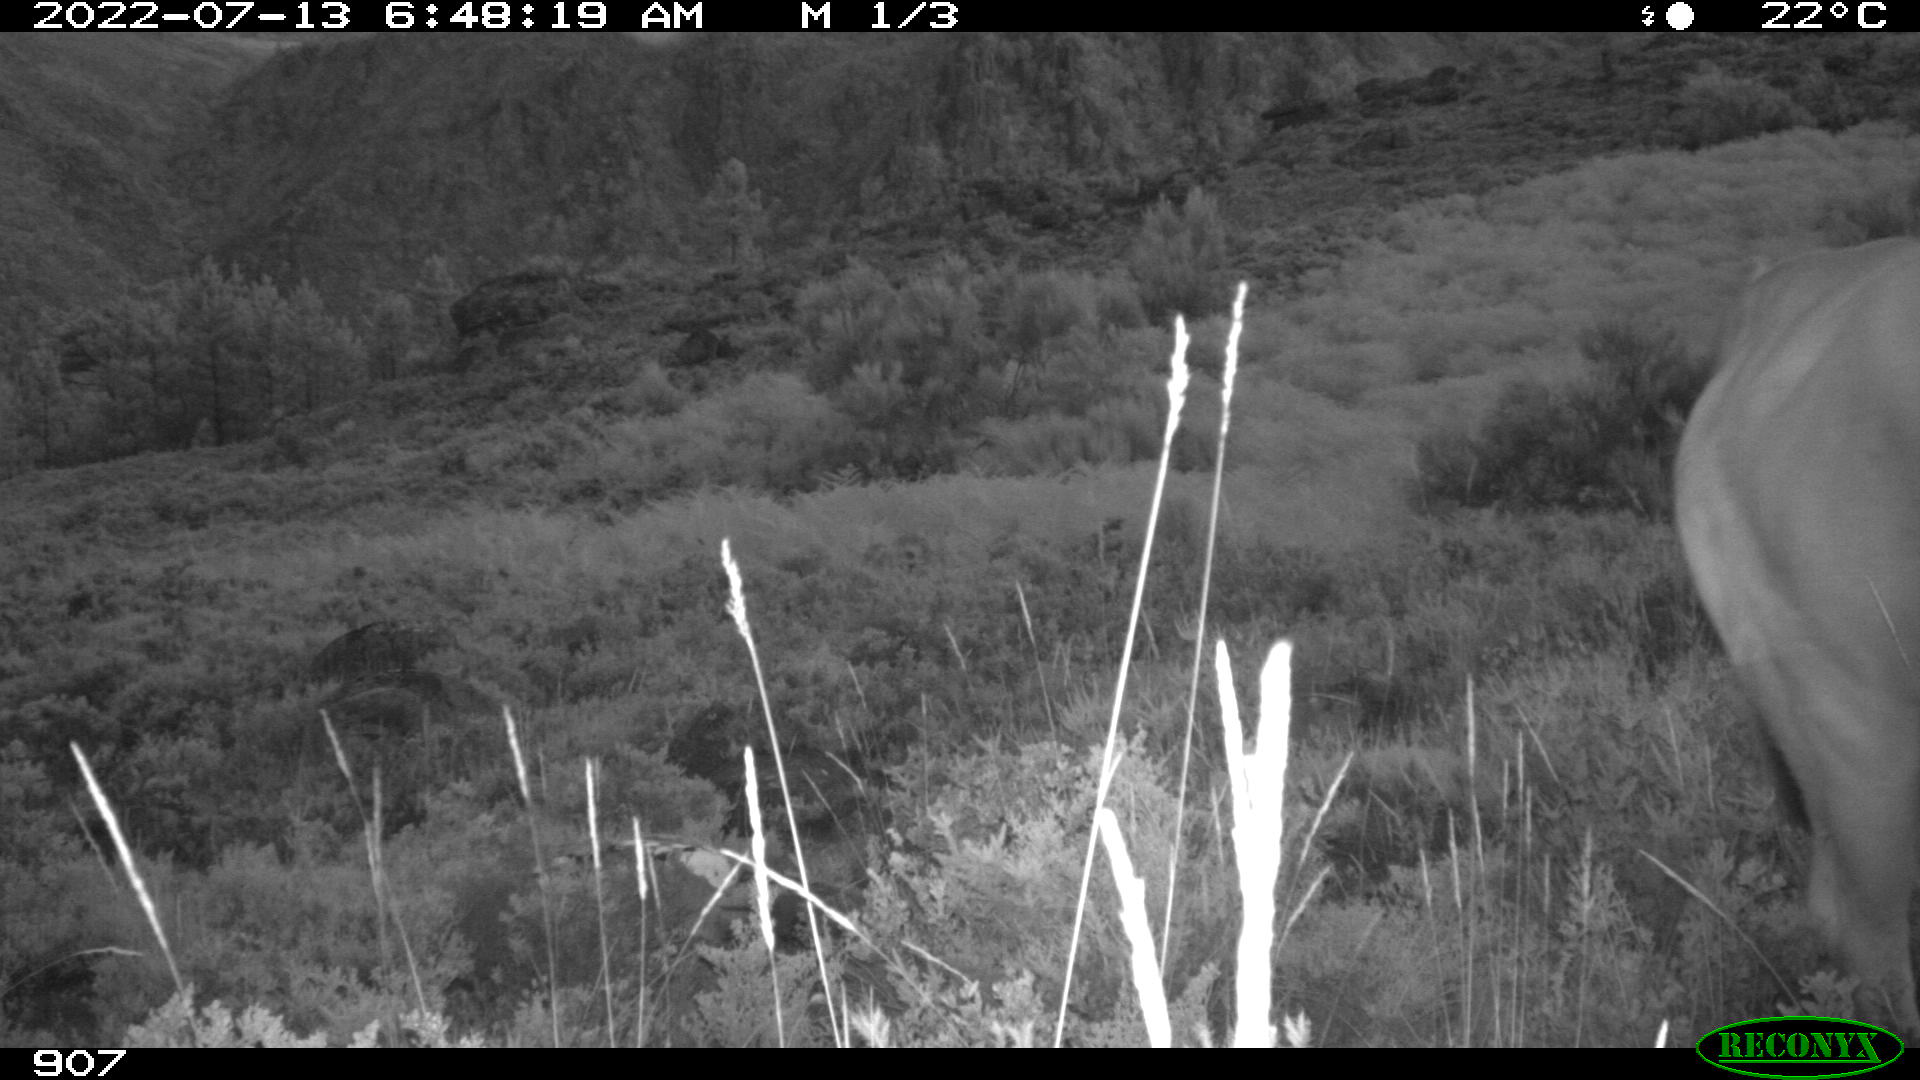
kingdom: Animalia
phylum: Chordata
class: Mammalia
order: Artiodactyla
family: Bovidae
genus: Bos
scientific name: Bos taurus
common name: Domesticated cattle
